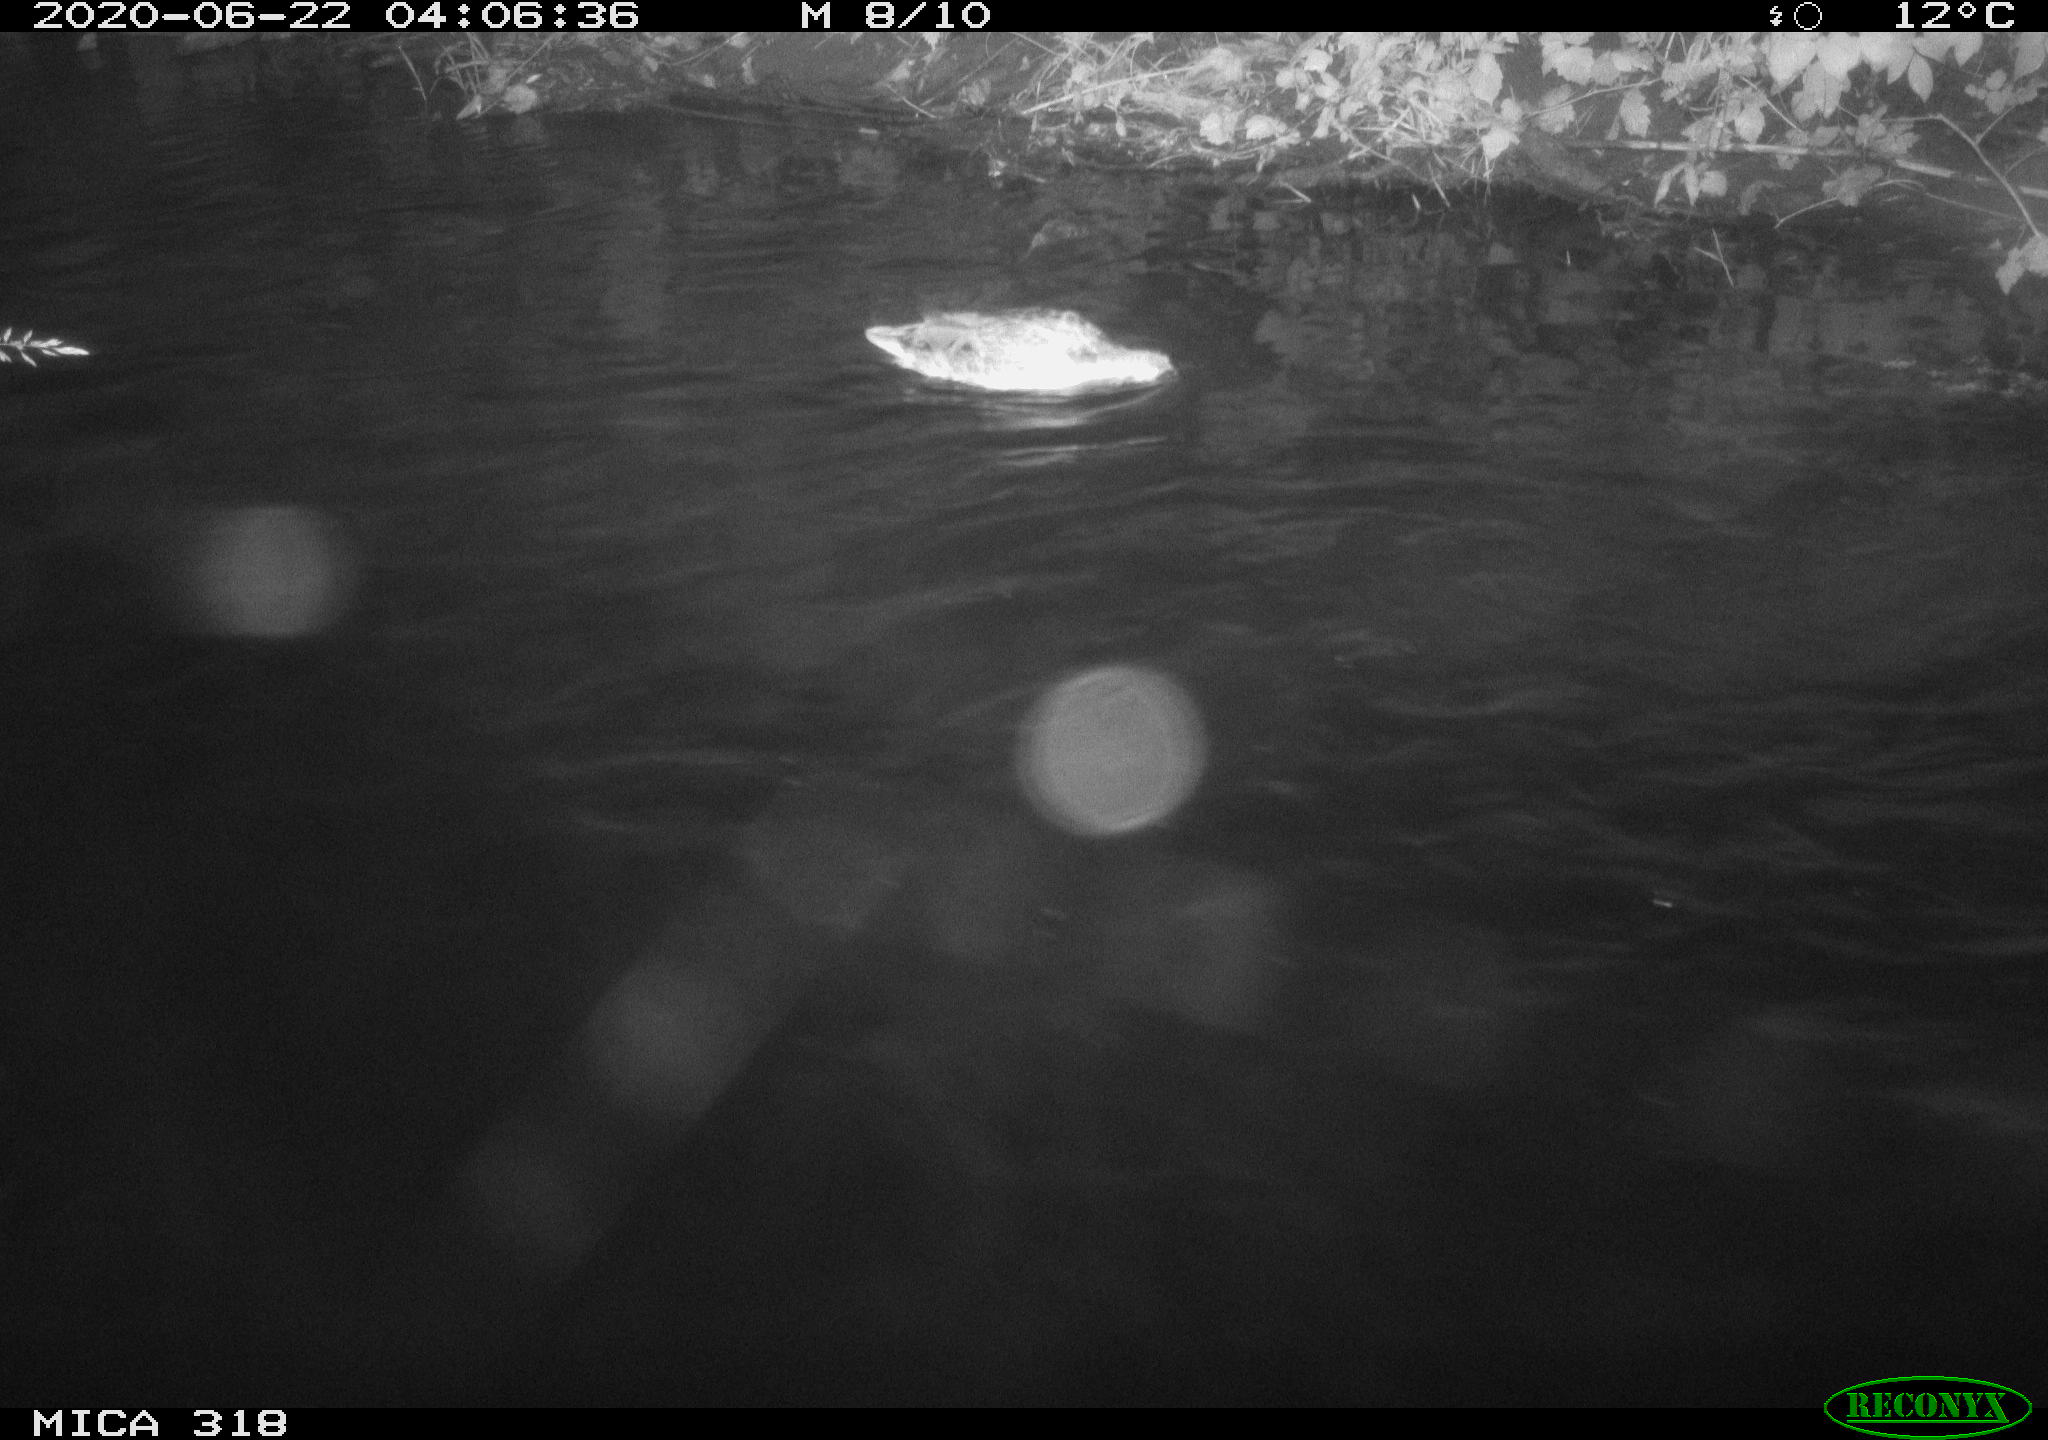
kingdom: Animalia
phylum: Chordata
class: Aves
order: Anseriformes
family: Anatidae
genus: Anas
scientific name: Anas platyrhynchos
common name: Mallard
